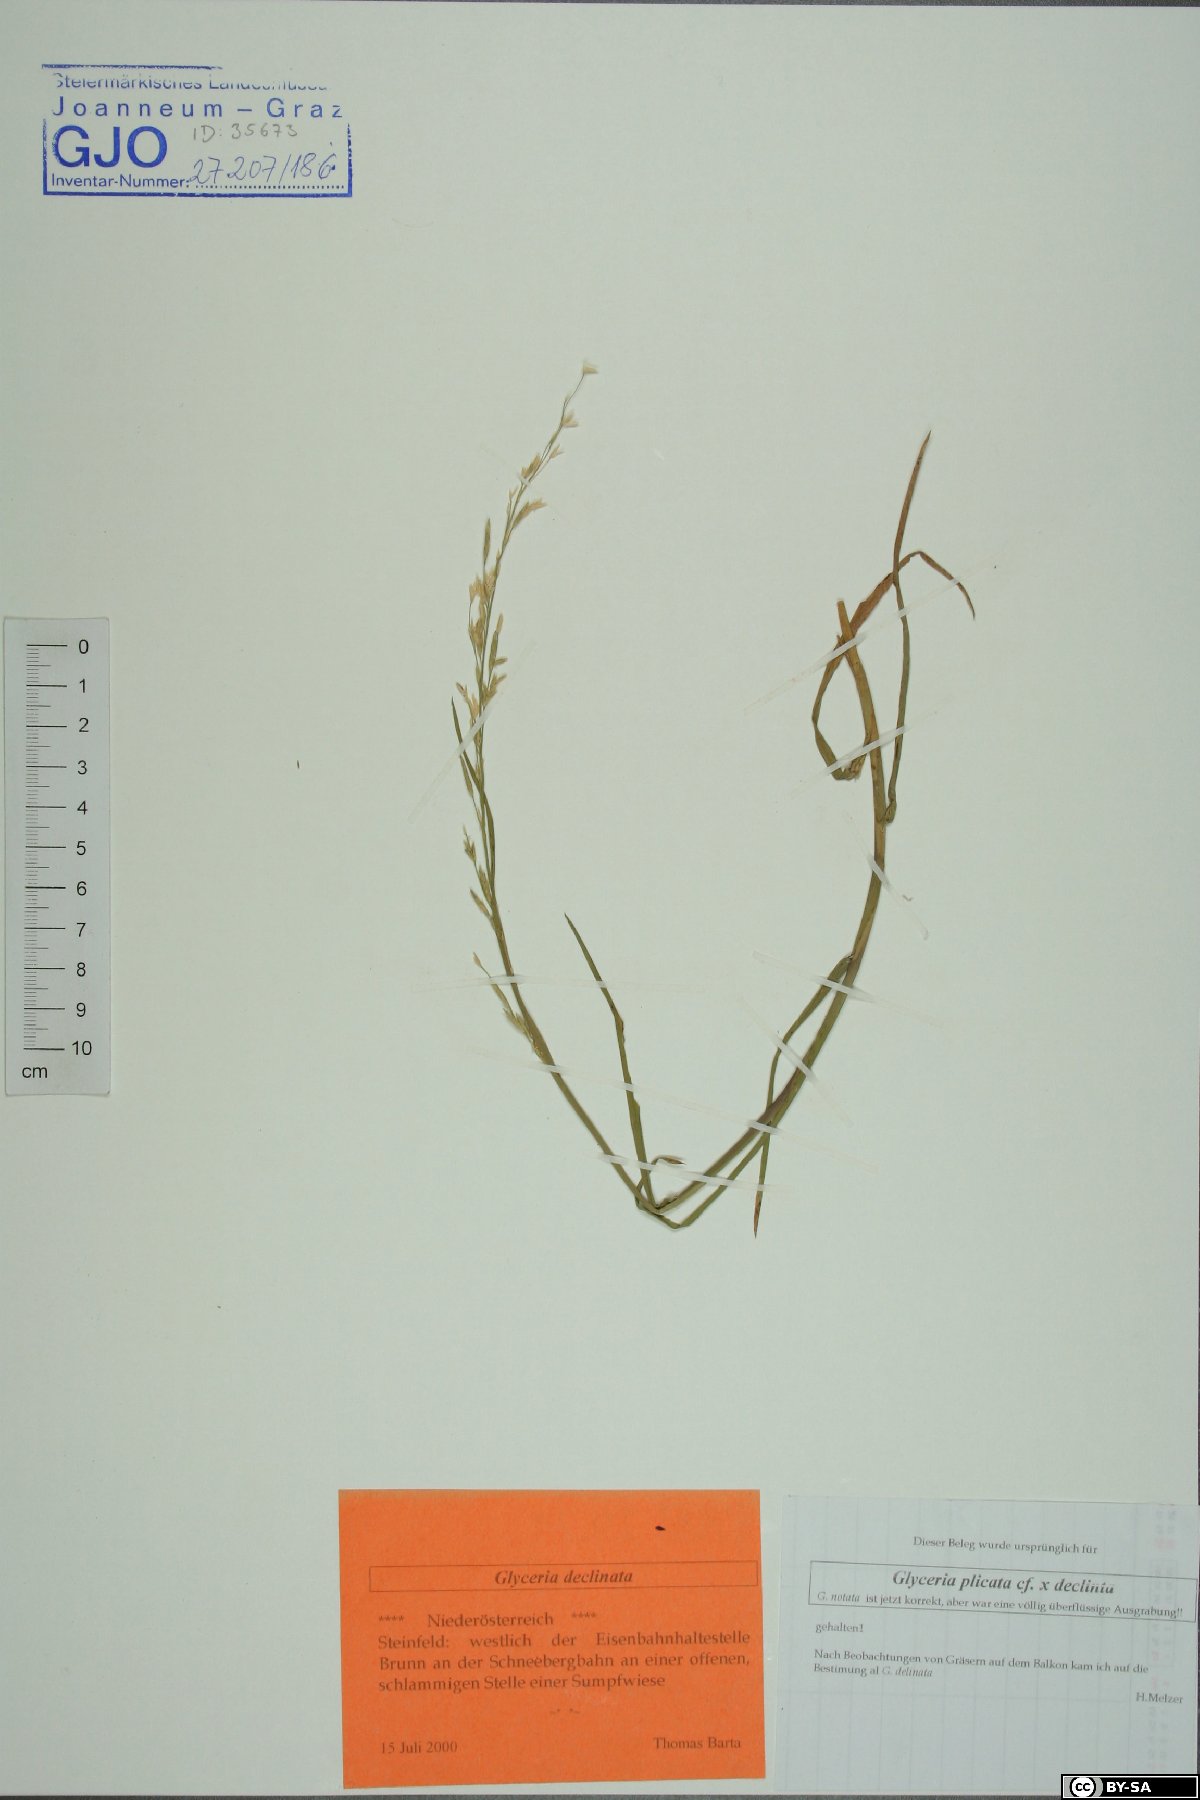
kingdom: Plantae
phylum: Tracheophyta
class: Liliopsida
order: Poales
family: Poaceae
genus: Glyceria
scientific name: Glyceria declinata
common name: Small sweet-grass
